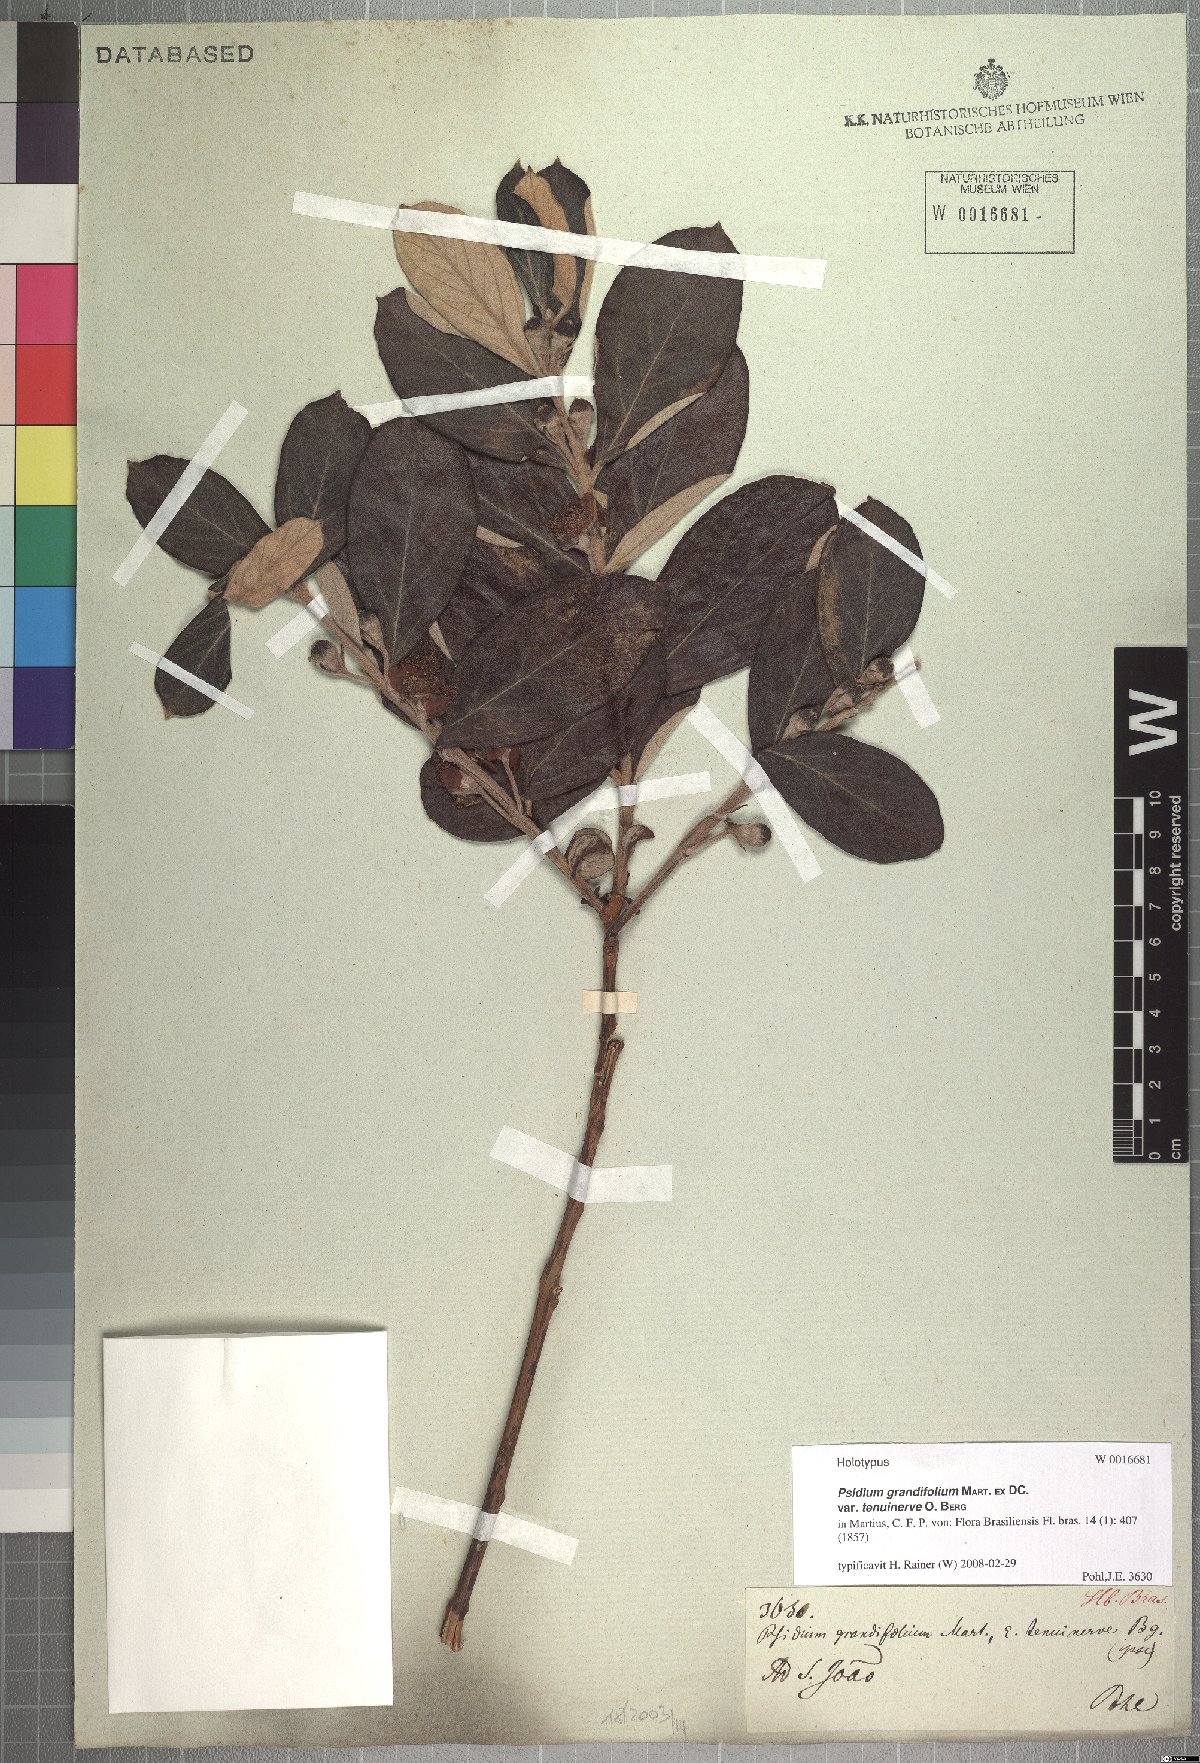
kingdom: Plantae
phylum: Tracheophyta
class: Magnoliopsida
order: Myrtales
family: Myrtaceae
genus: Psidium
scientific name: Psidium grandifolium
